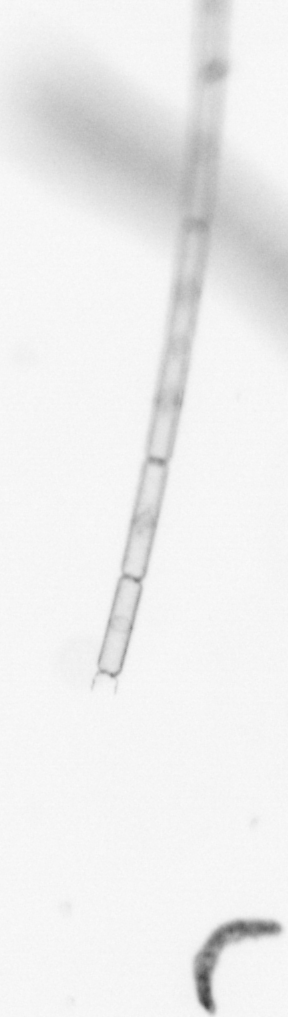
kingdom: Chromista
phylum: Ochrophyta
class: Bacillariophyceae
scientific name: Bacillariophyceae
